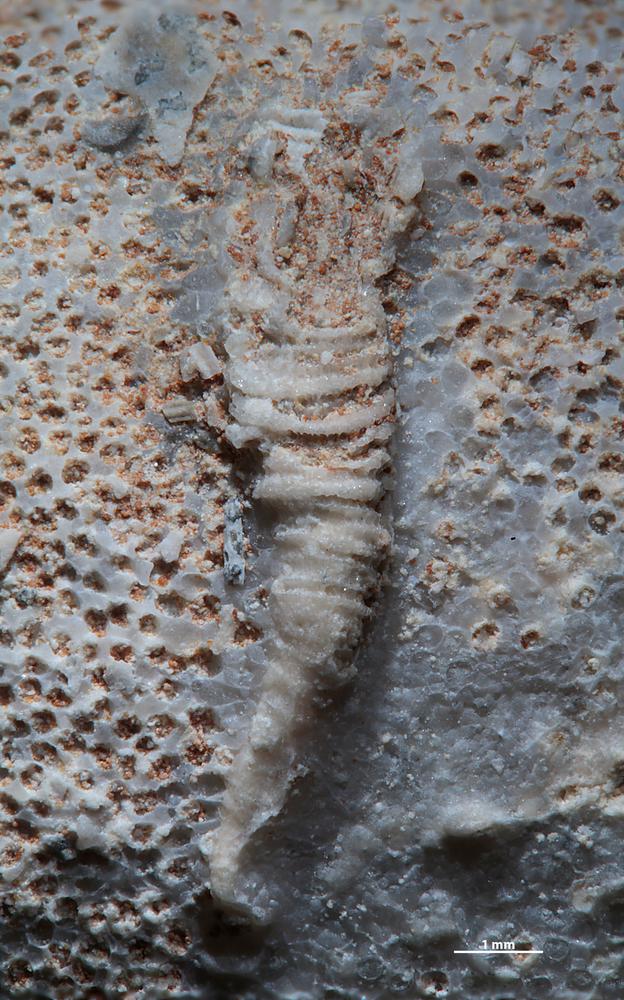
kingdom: Animalia
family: Cornulitidae
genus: Cornulites
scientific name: Cornulites
